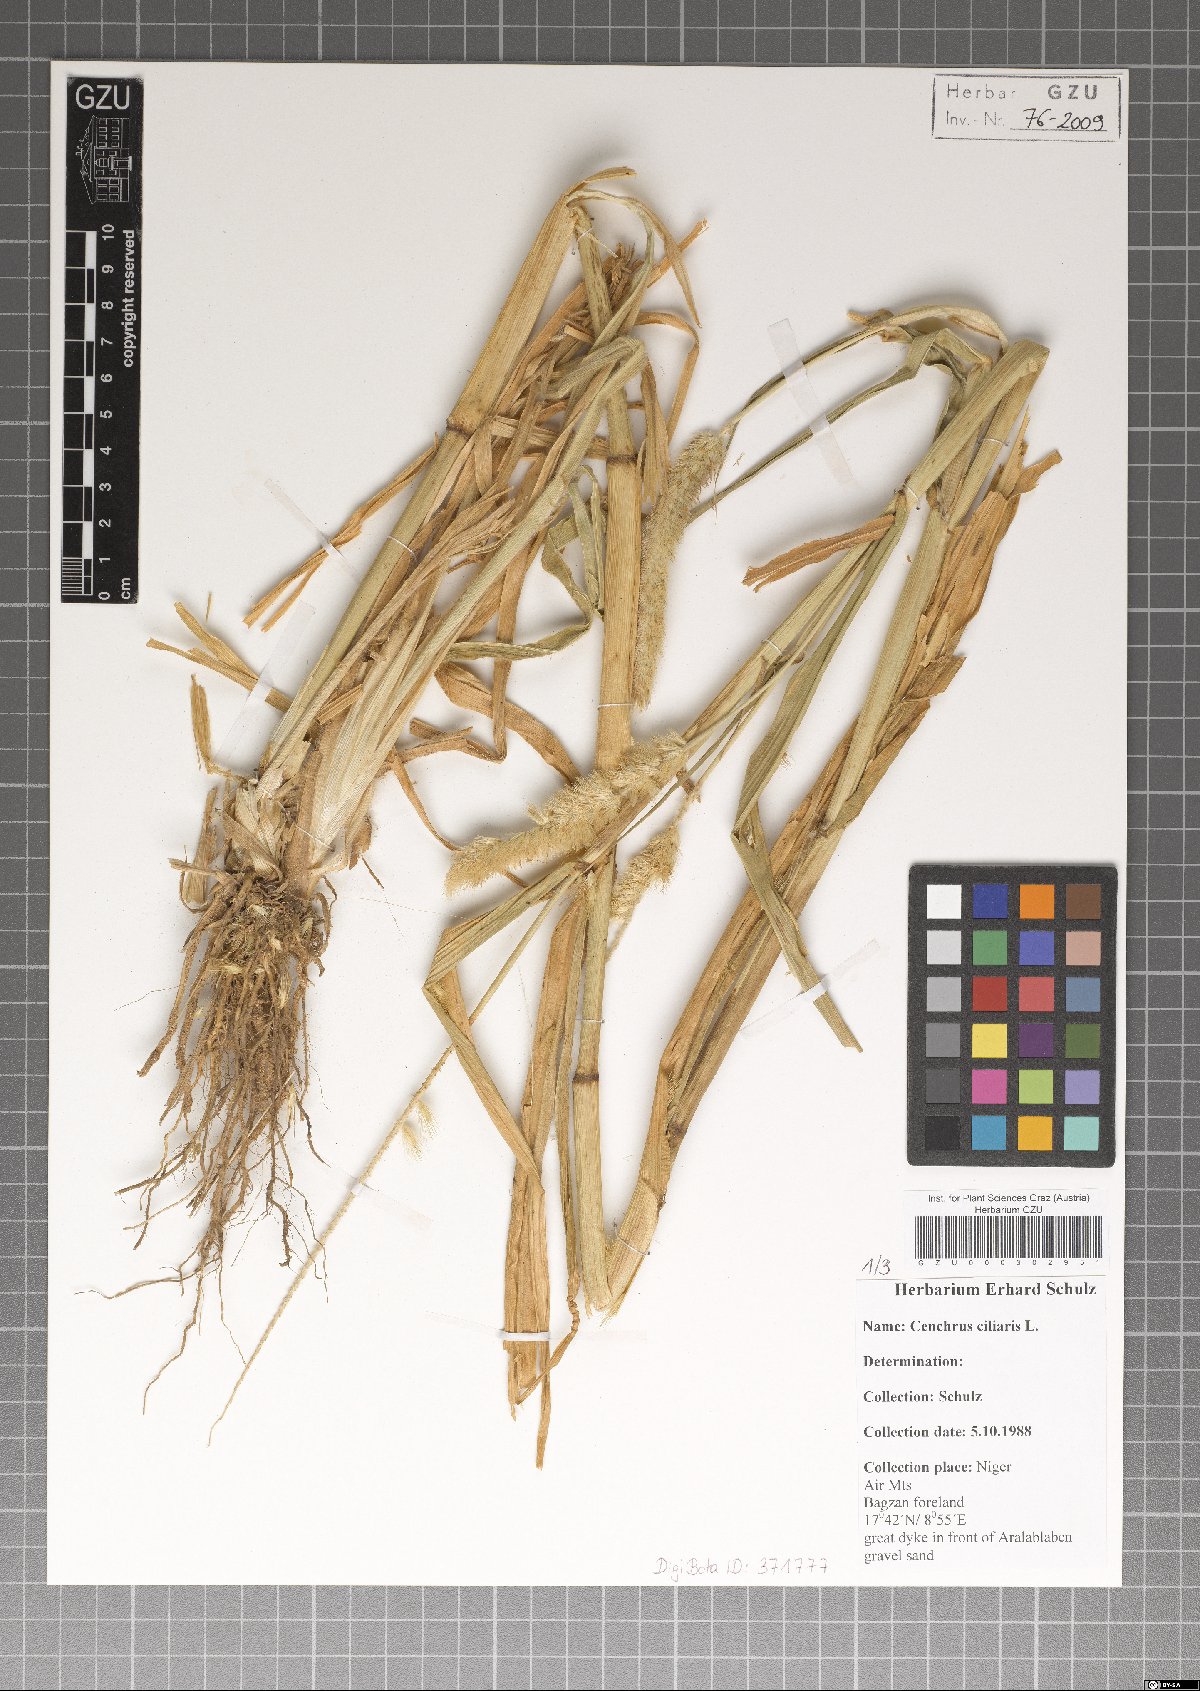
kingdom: Plantae
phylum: Tracheophyta
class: Liliopsida
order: Poales
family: Poaceae
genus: Cenchrus
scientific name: Cenchrus ciliaris
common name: Buffelgrass
